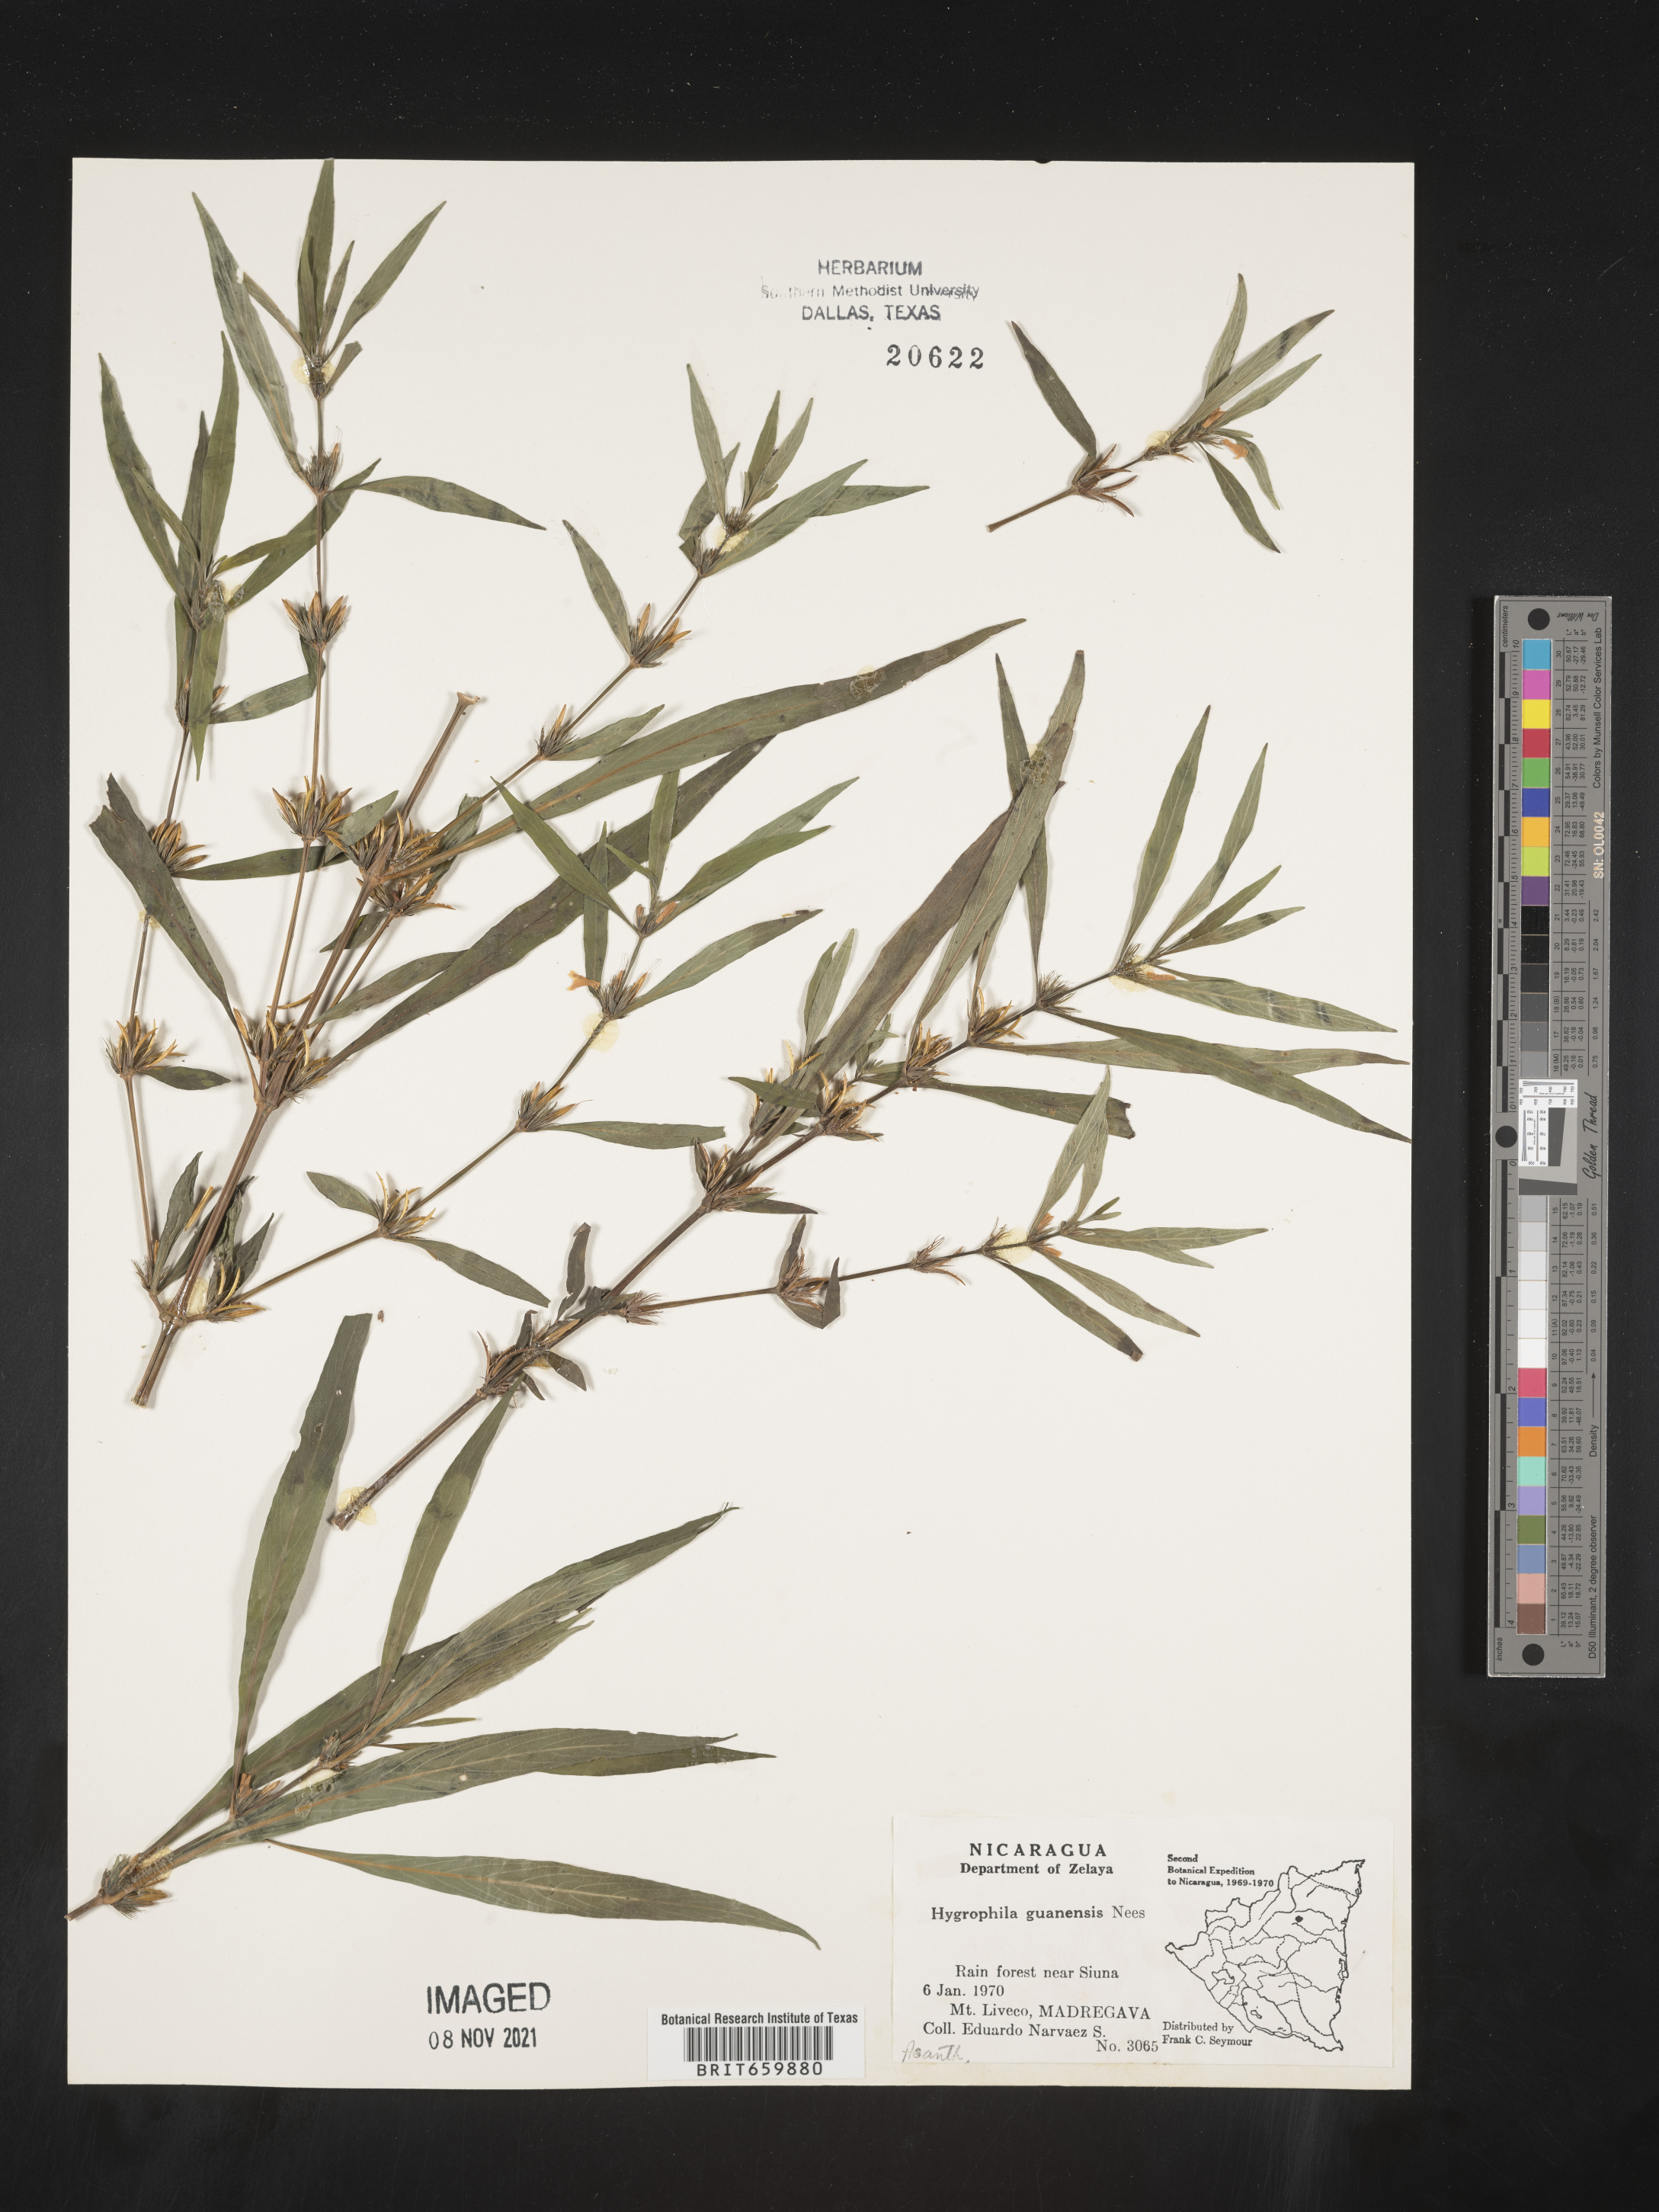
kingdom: Plantae
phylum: Tracheophyta
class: Magnoliopsida
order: Lamiales
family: Acanthaceae
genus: Hygrophila
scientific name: Hygrophila
